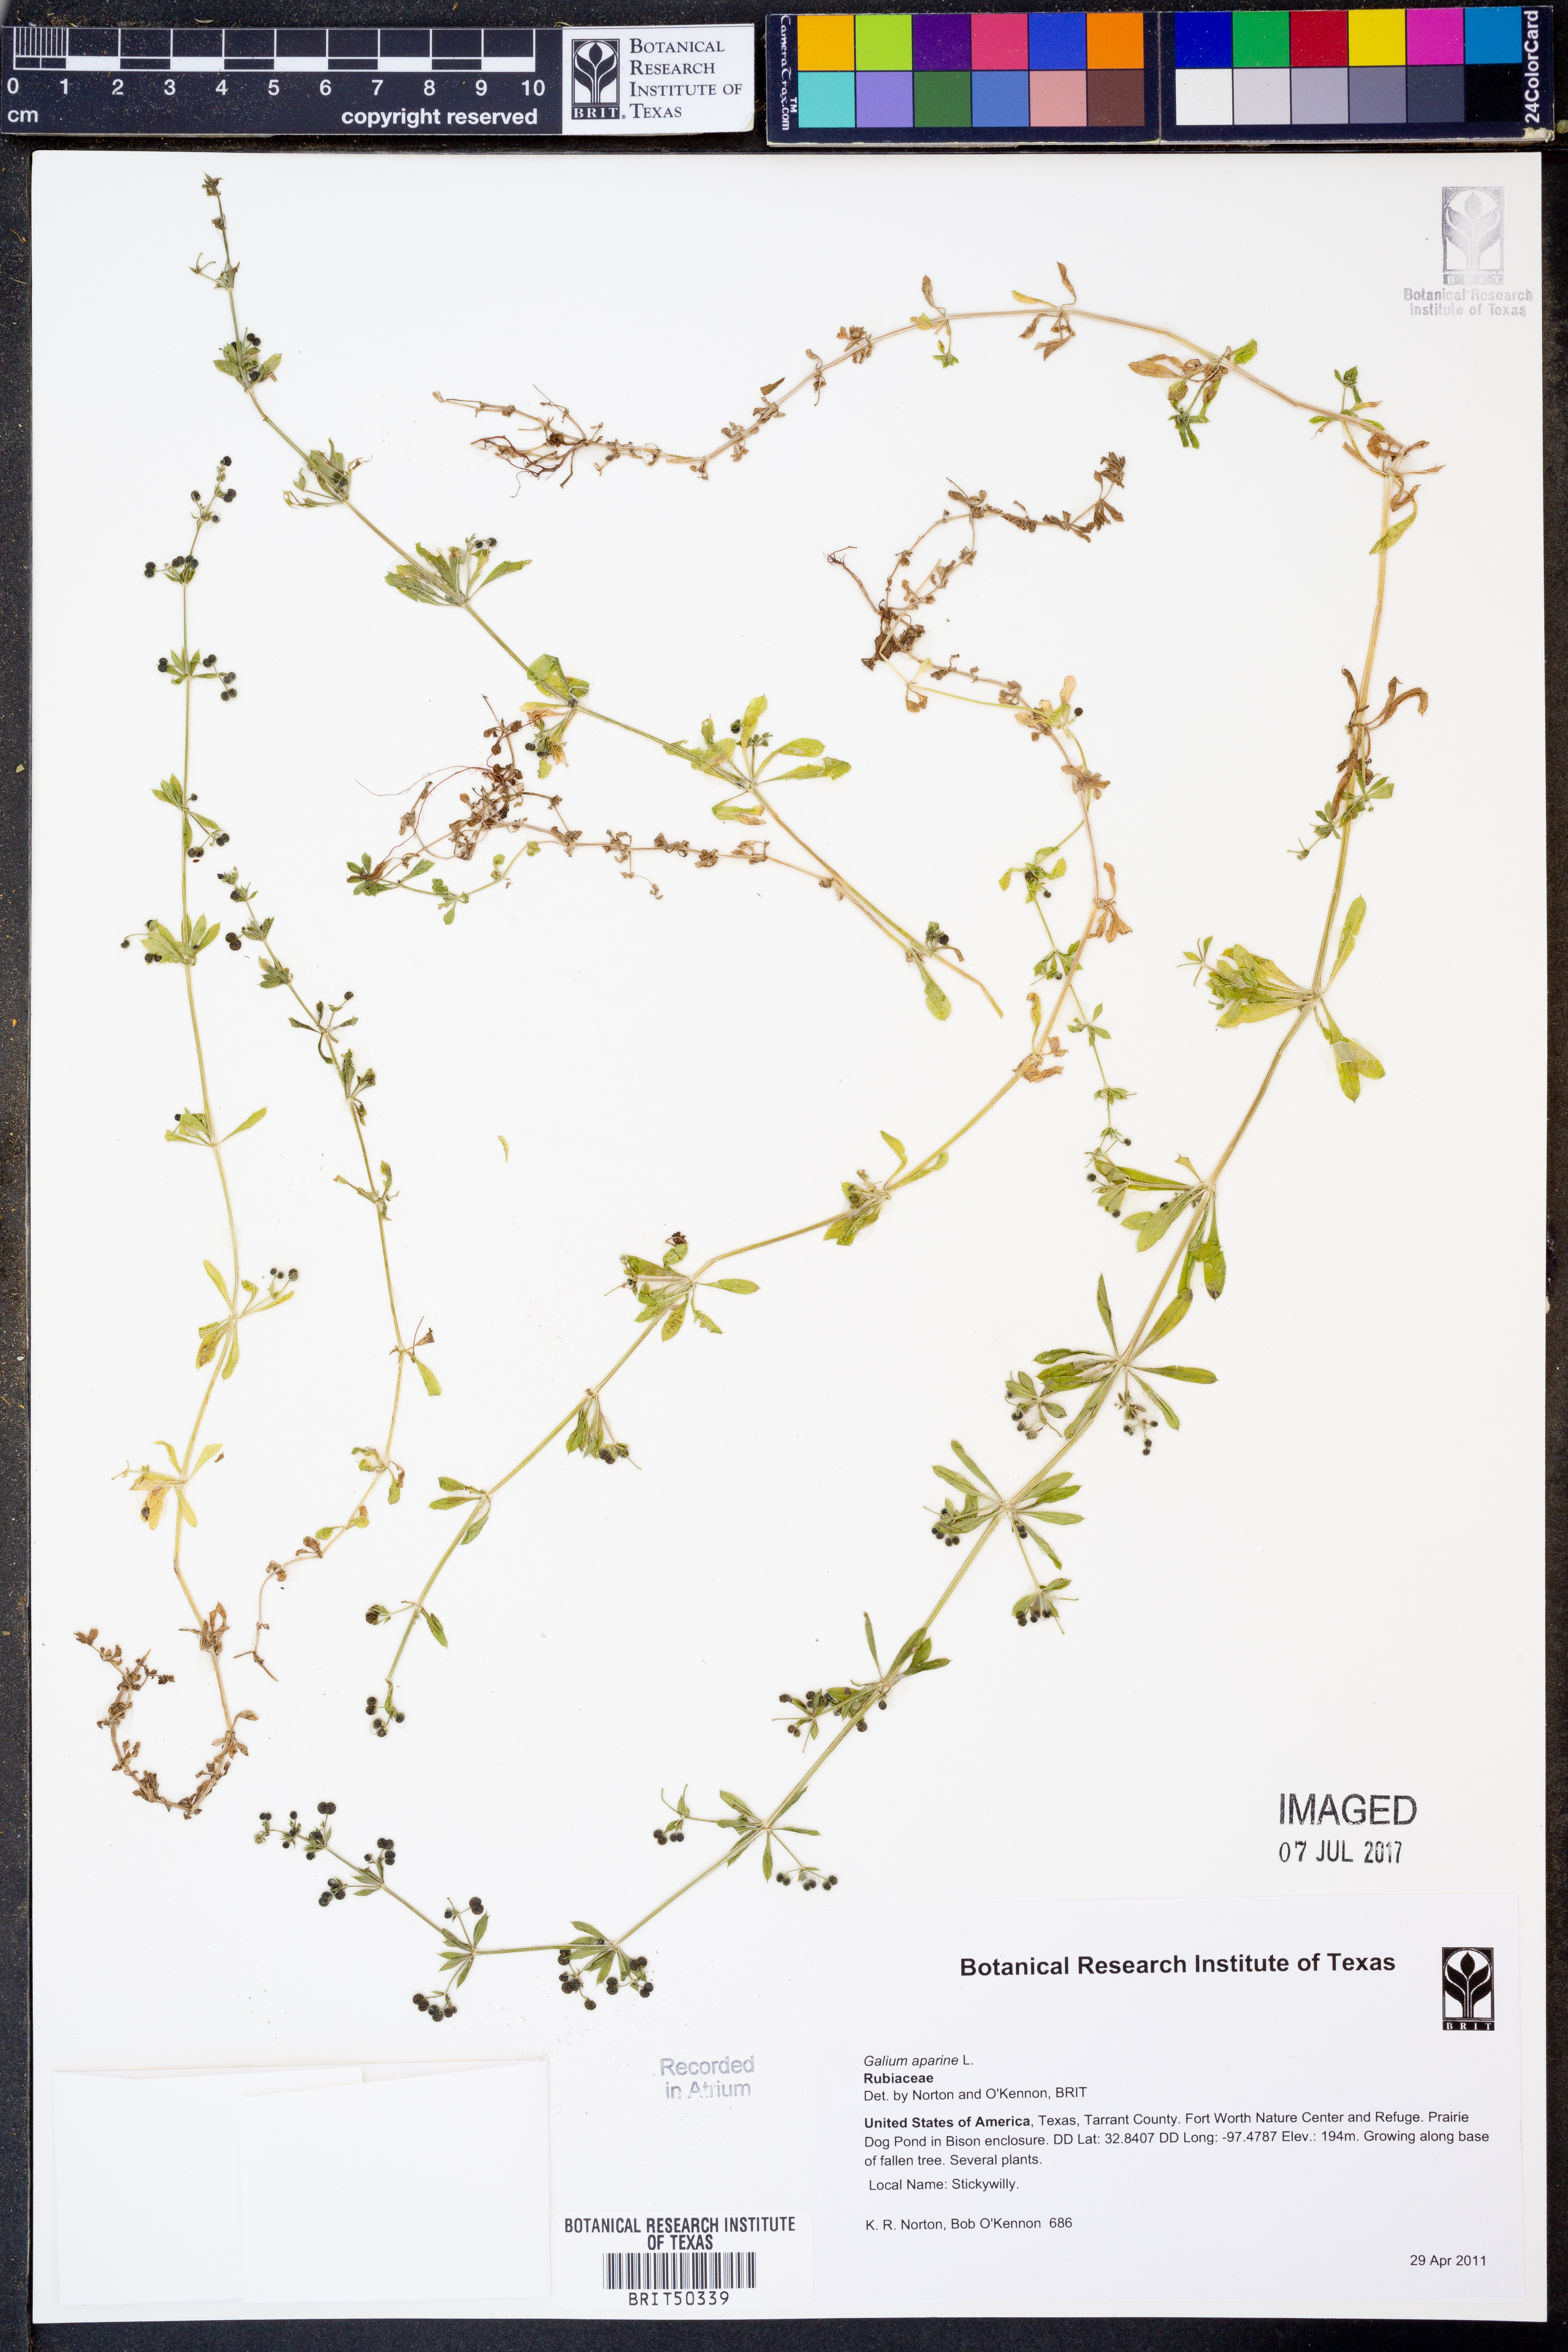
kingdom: Plantae
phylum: Tracheophyta
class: Magnoliopsida
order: Gentianales
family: Rubiaceae
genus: Galium
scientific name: Galium aparine
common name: Cleavers
